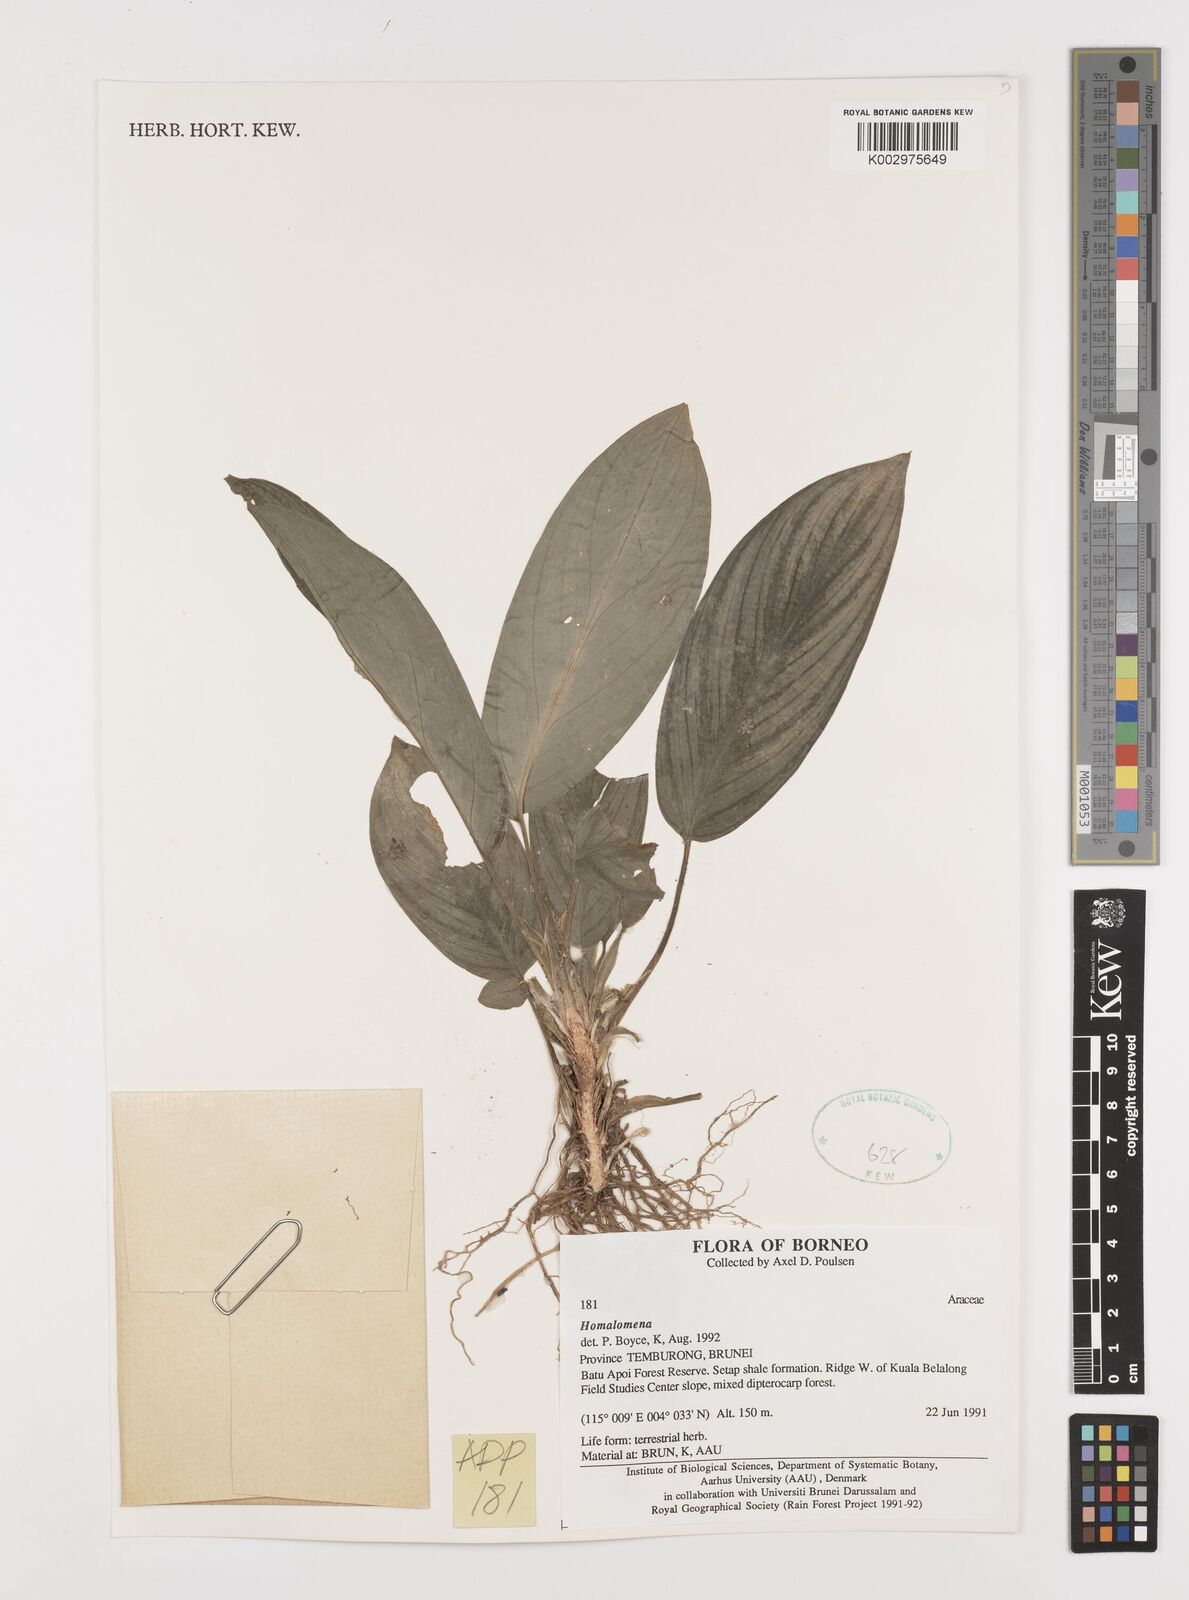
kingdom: Plantae
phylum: Tracheophyta
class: Liliopsida
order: Alismatales
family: Araceae
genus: Homalomena
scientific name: Homalomena
